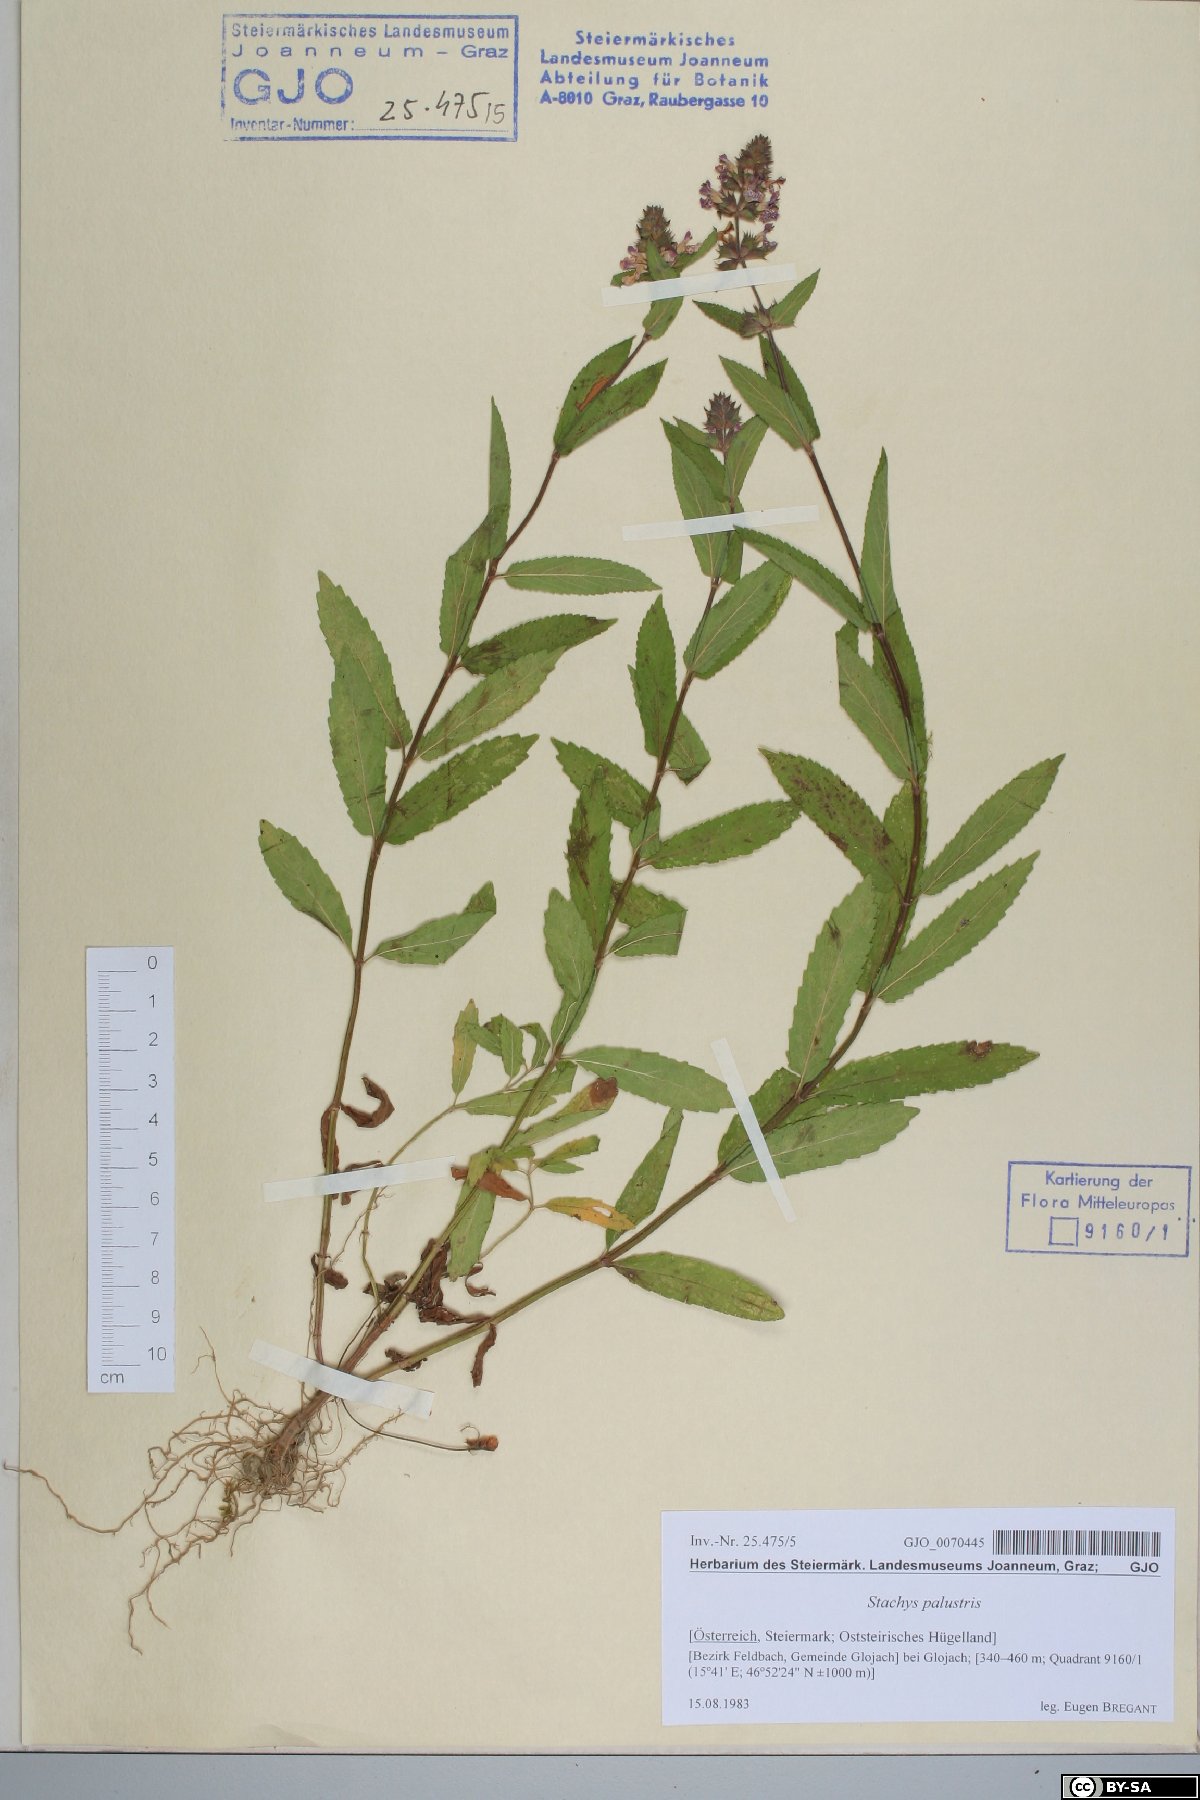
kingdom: Plantae
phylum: Tracheophyta
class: Magnoliopsida
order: Lamiales
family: Lamiaceae
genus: Stachys
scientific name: Stachys palustris
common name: Marsh woundwort
